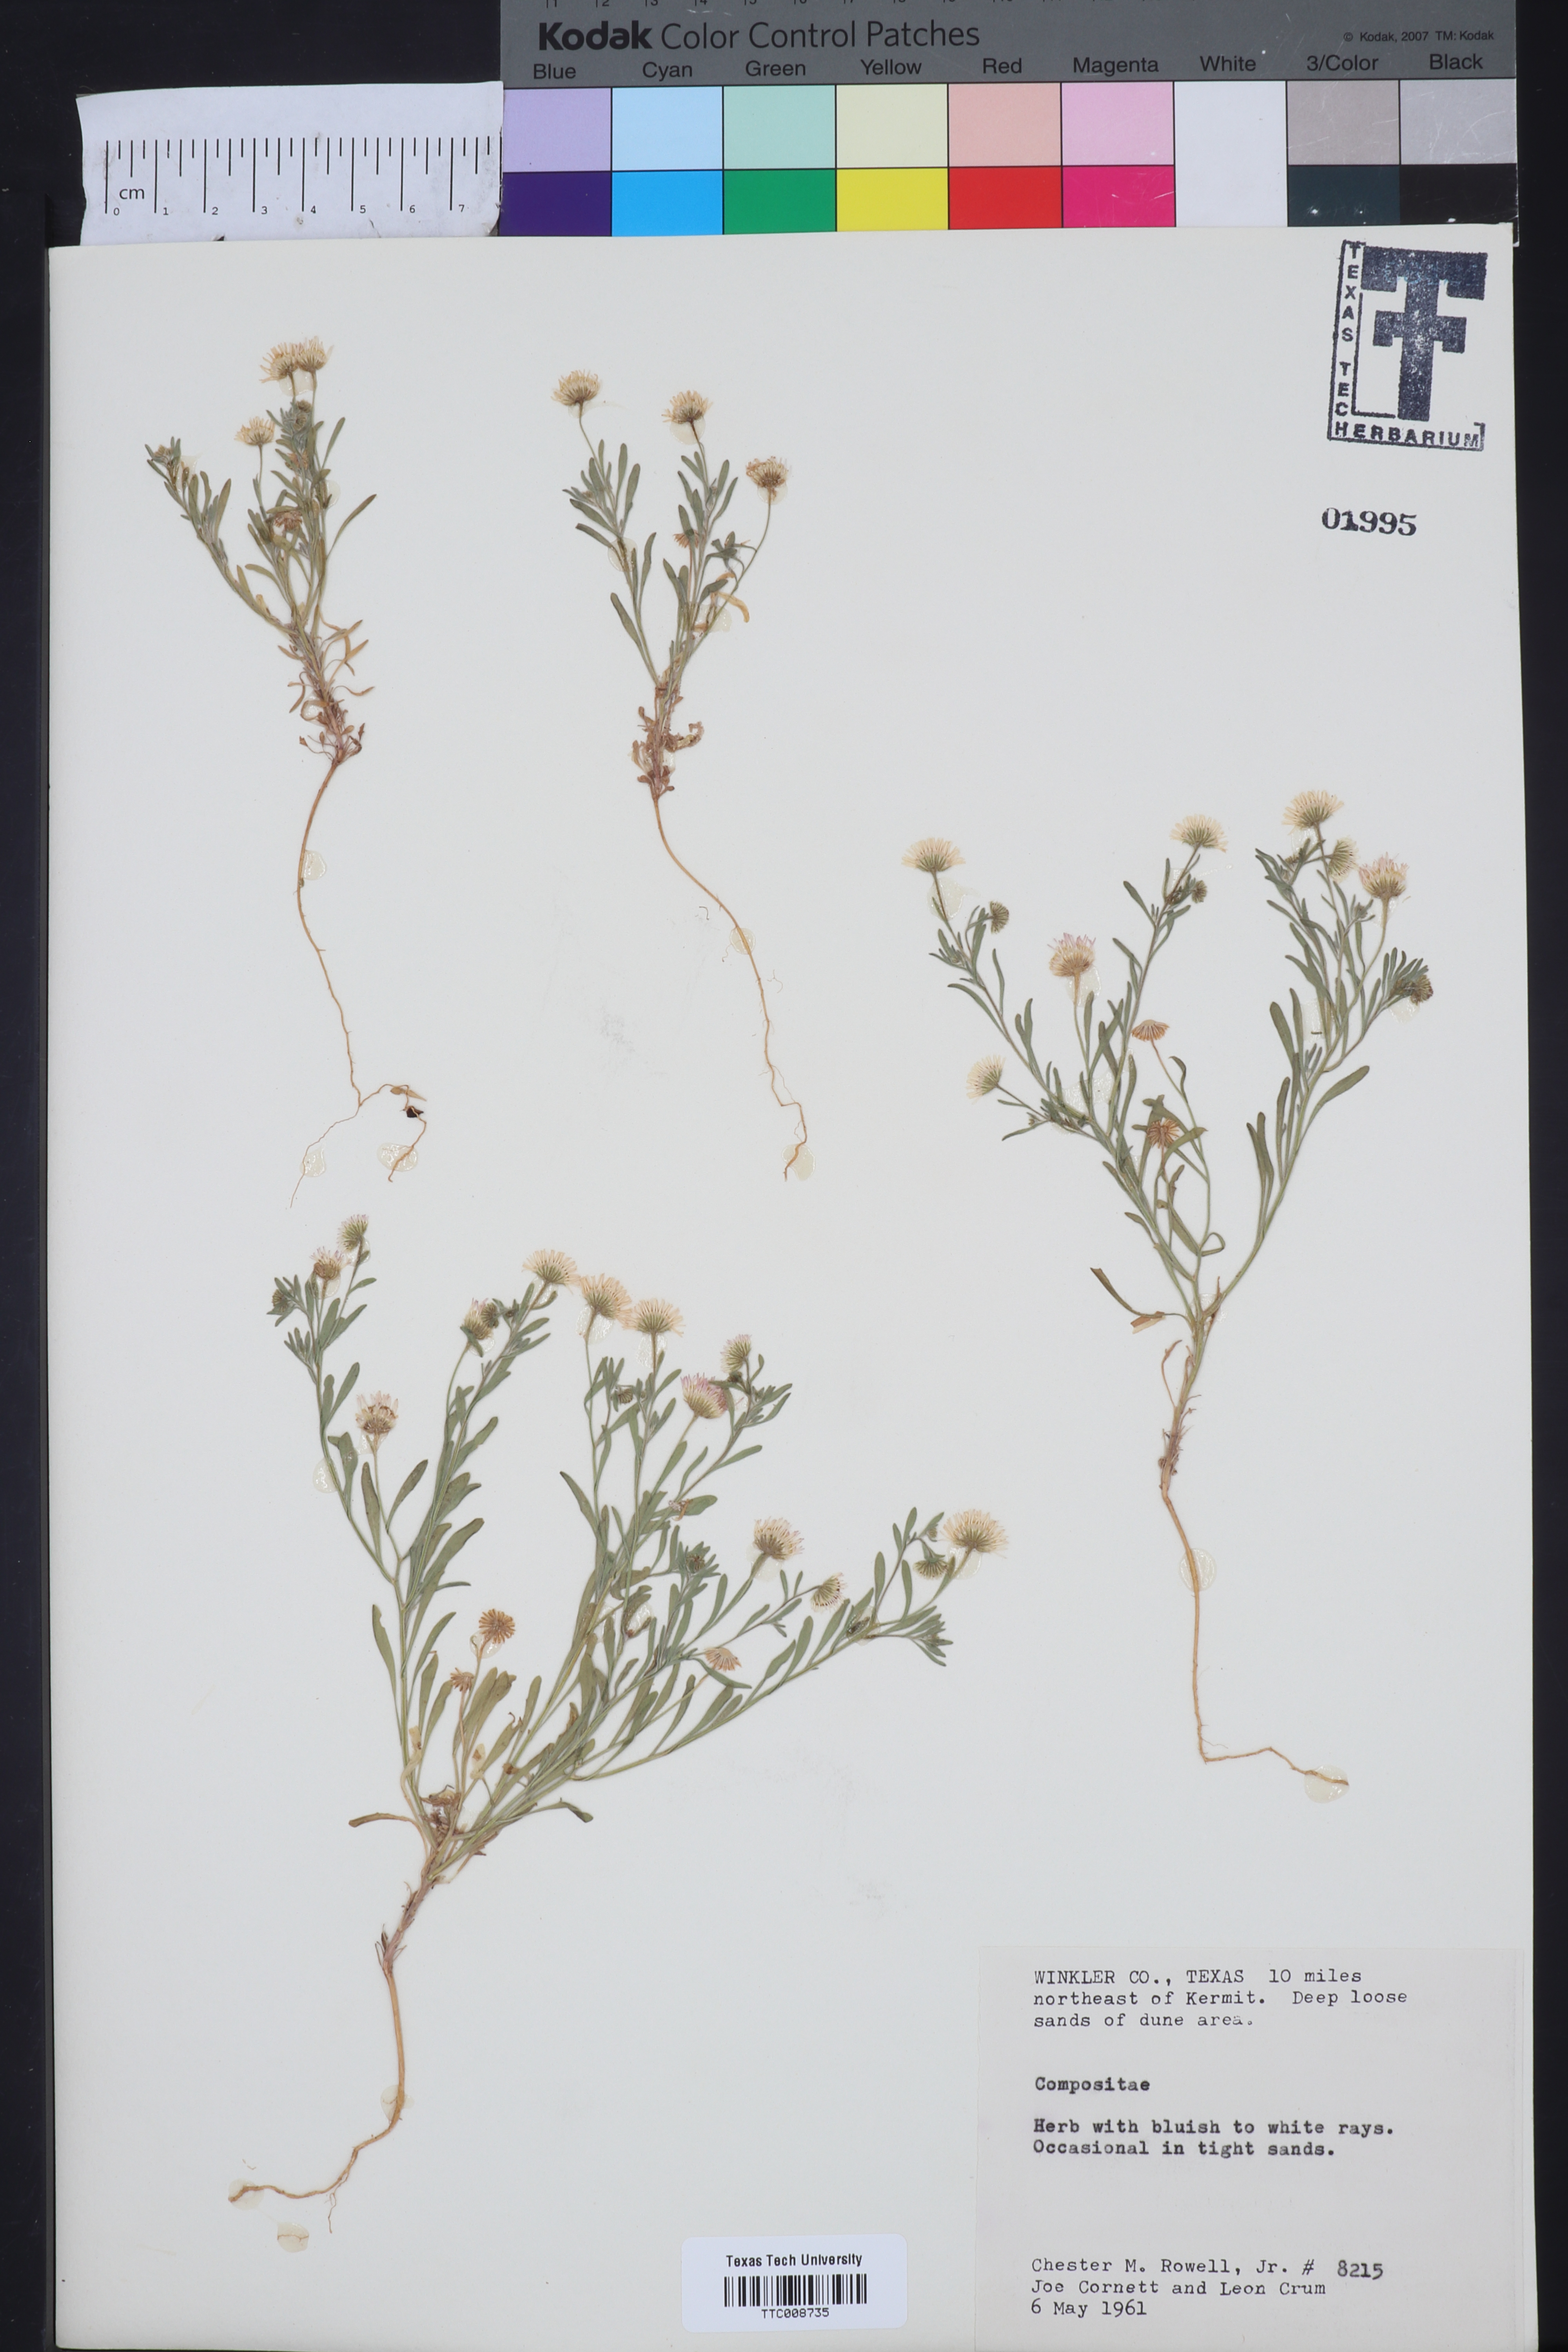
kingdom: Plantae
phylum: Tracheophyta
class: Magnoliopsida
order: Asterales
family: Asteraceae
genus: Erigeron
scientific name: Erigeron
